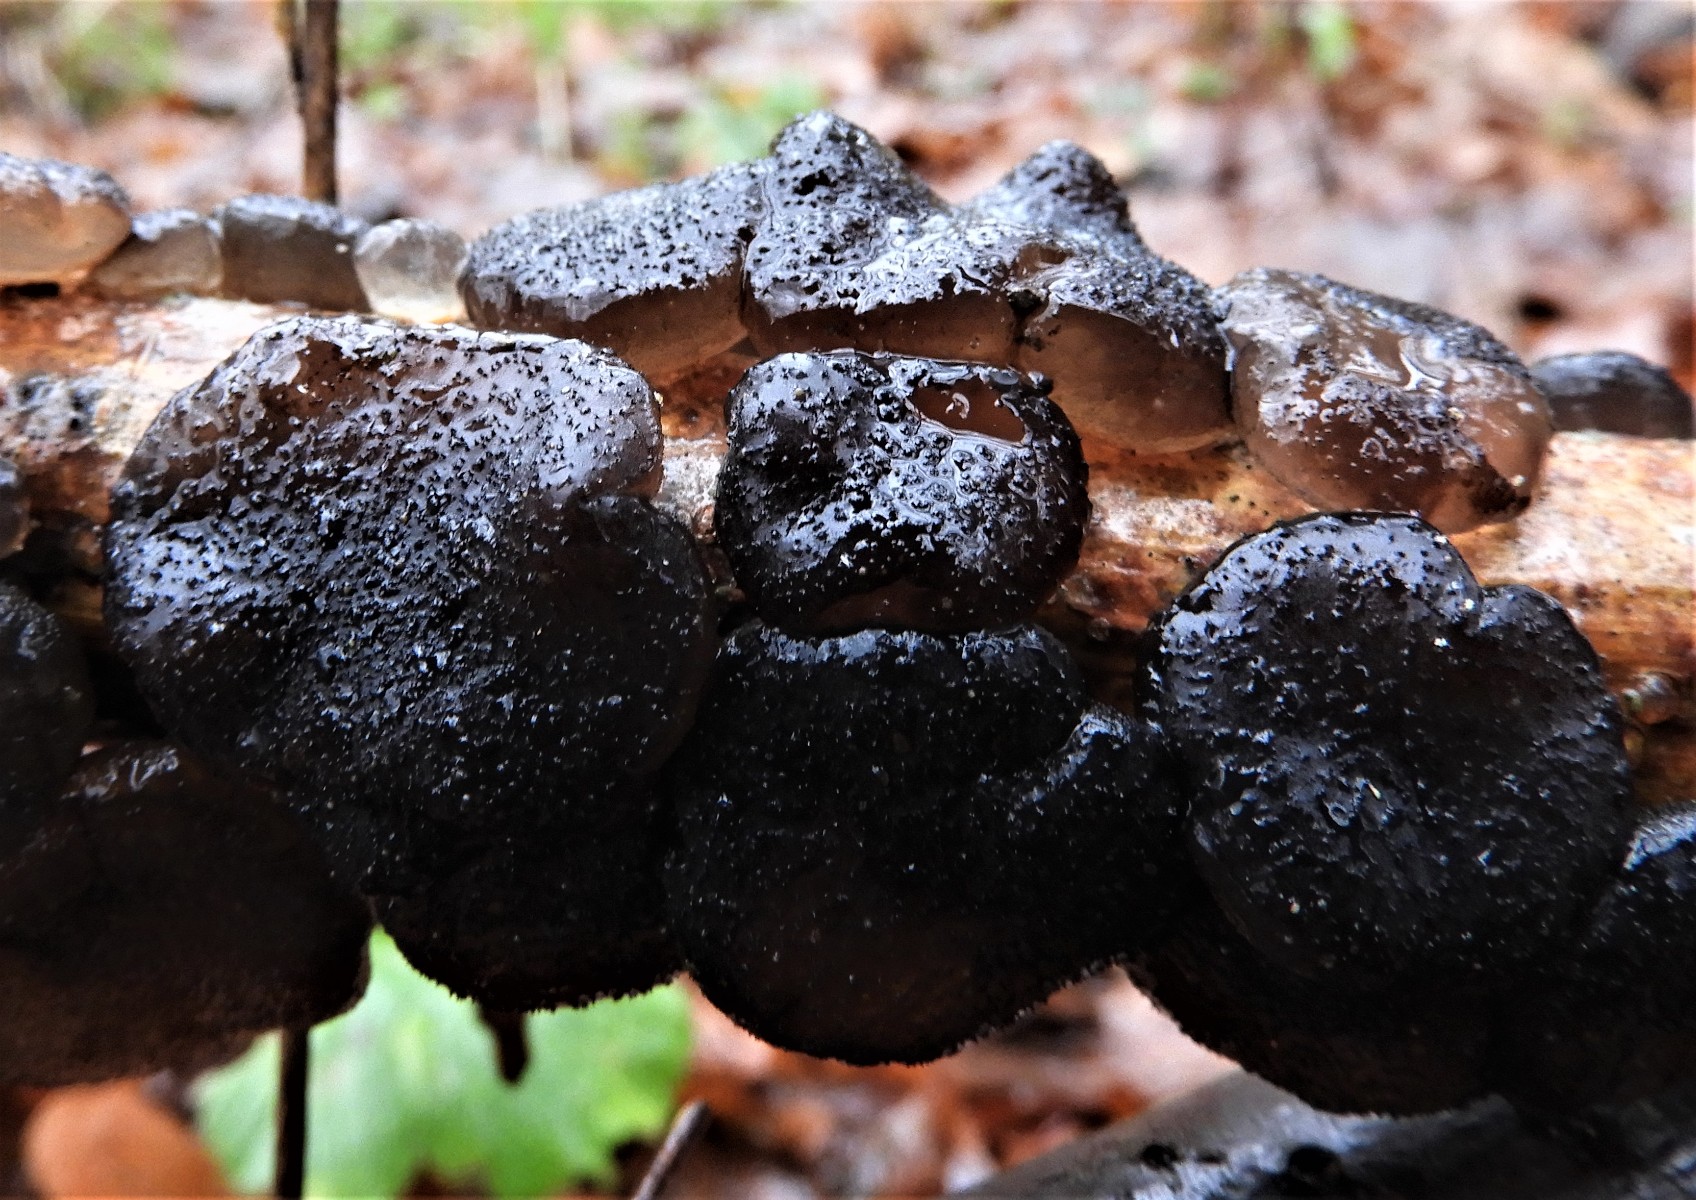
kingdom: Fungi
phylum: Basidiomycota
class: Agaricomycetes
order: Auriculariales
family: Auriculariaceae
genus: Exidia
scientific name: Exidia glandulosa
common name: ege-bævretop
